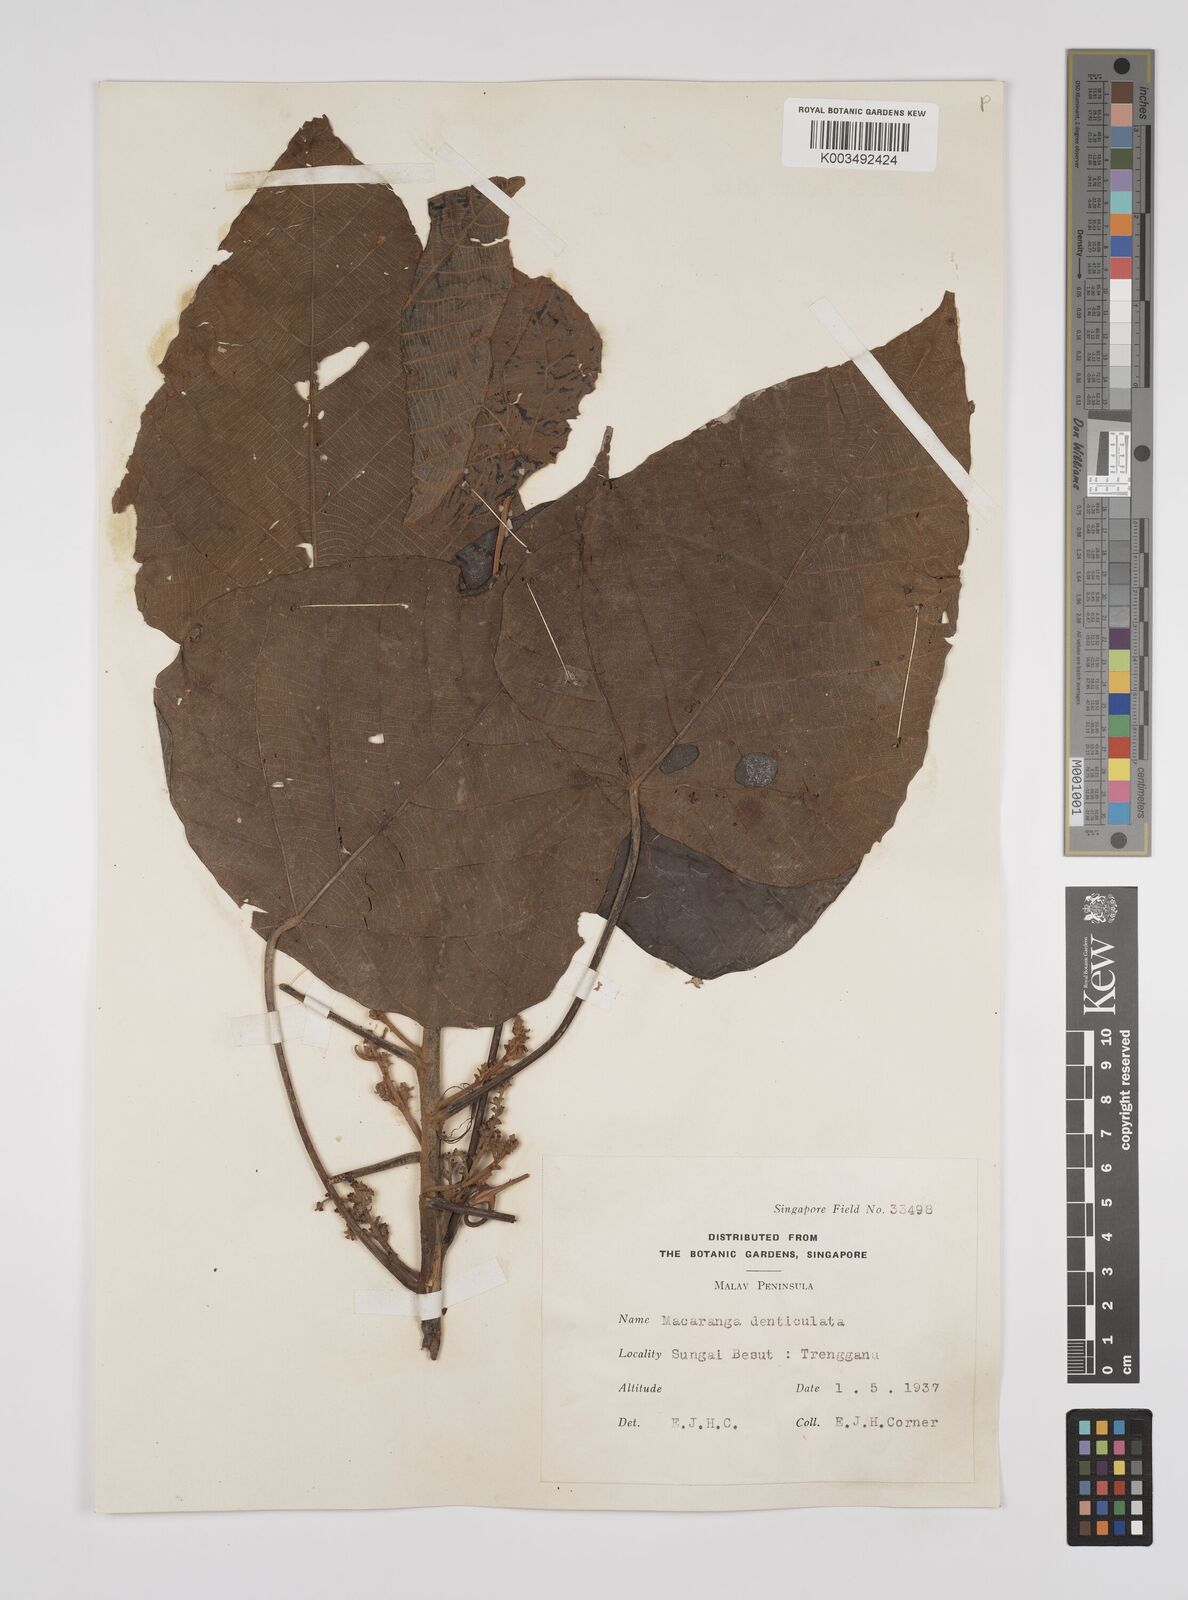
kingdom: Plantae
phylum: Tracheophyta
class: Magnoliopsida
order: Malpighiales
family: Euphorbiaceae
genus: Macaranga
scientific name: Macaranga denticulata
